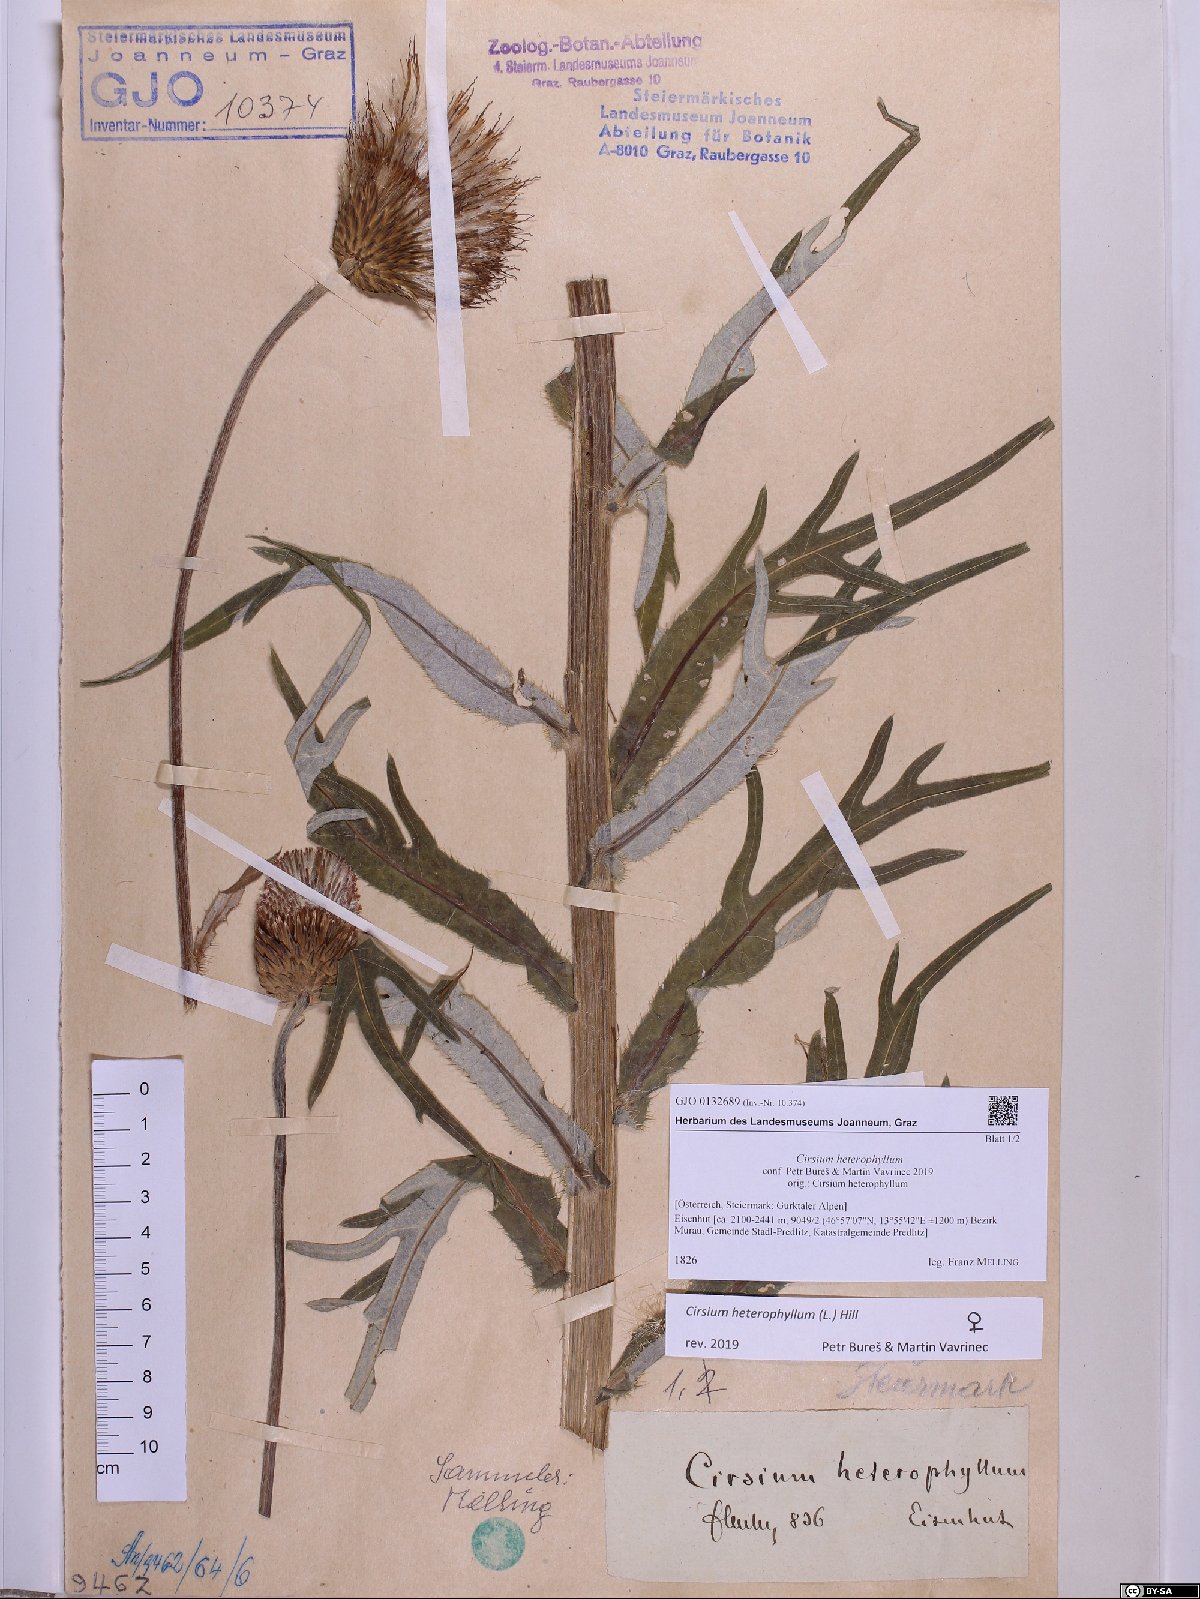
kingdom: Plantae
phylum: Tracheophyta
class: Magnoliopsida
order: Asterales
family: Asteraceae
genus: Cirsium
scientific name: Cirsium heterophyllum
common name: Melancholy thistle
